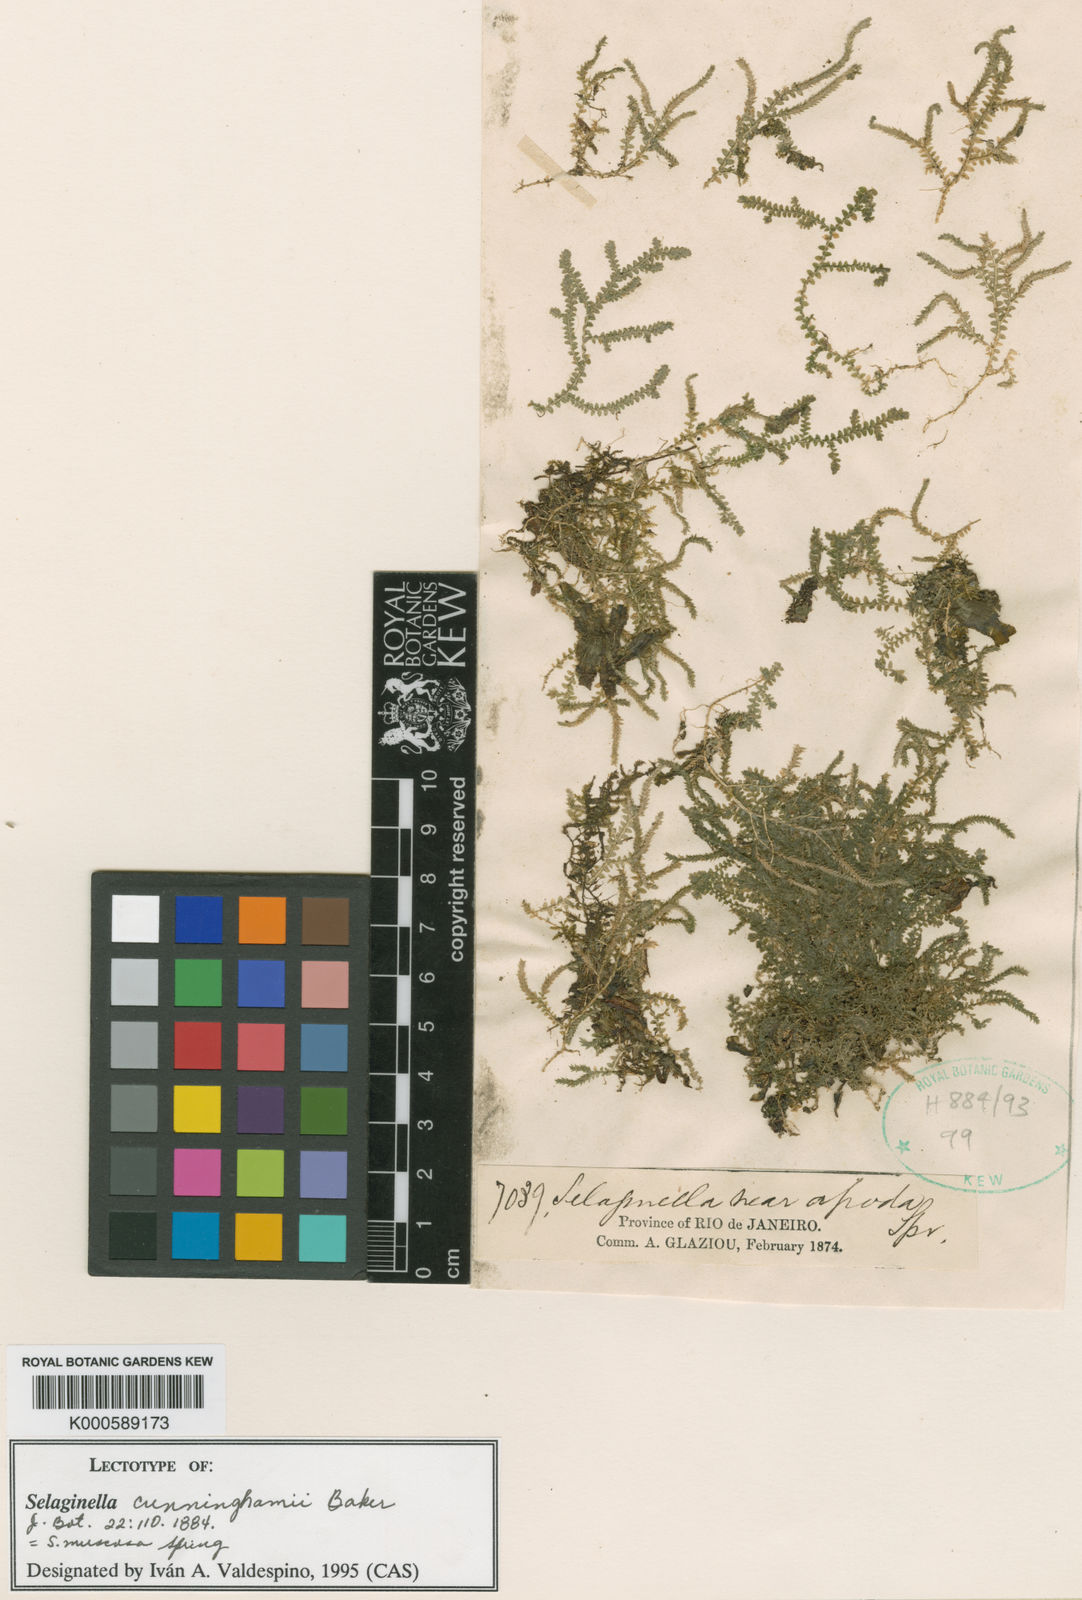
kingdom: Plantae
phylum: Tracheophyta
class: Lycopodiopsida
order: Selaginellales
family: Selaginellaceae
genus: Selaginella
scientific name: Selaginella muscosa
